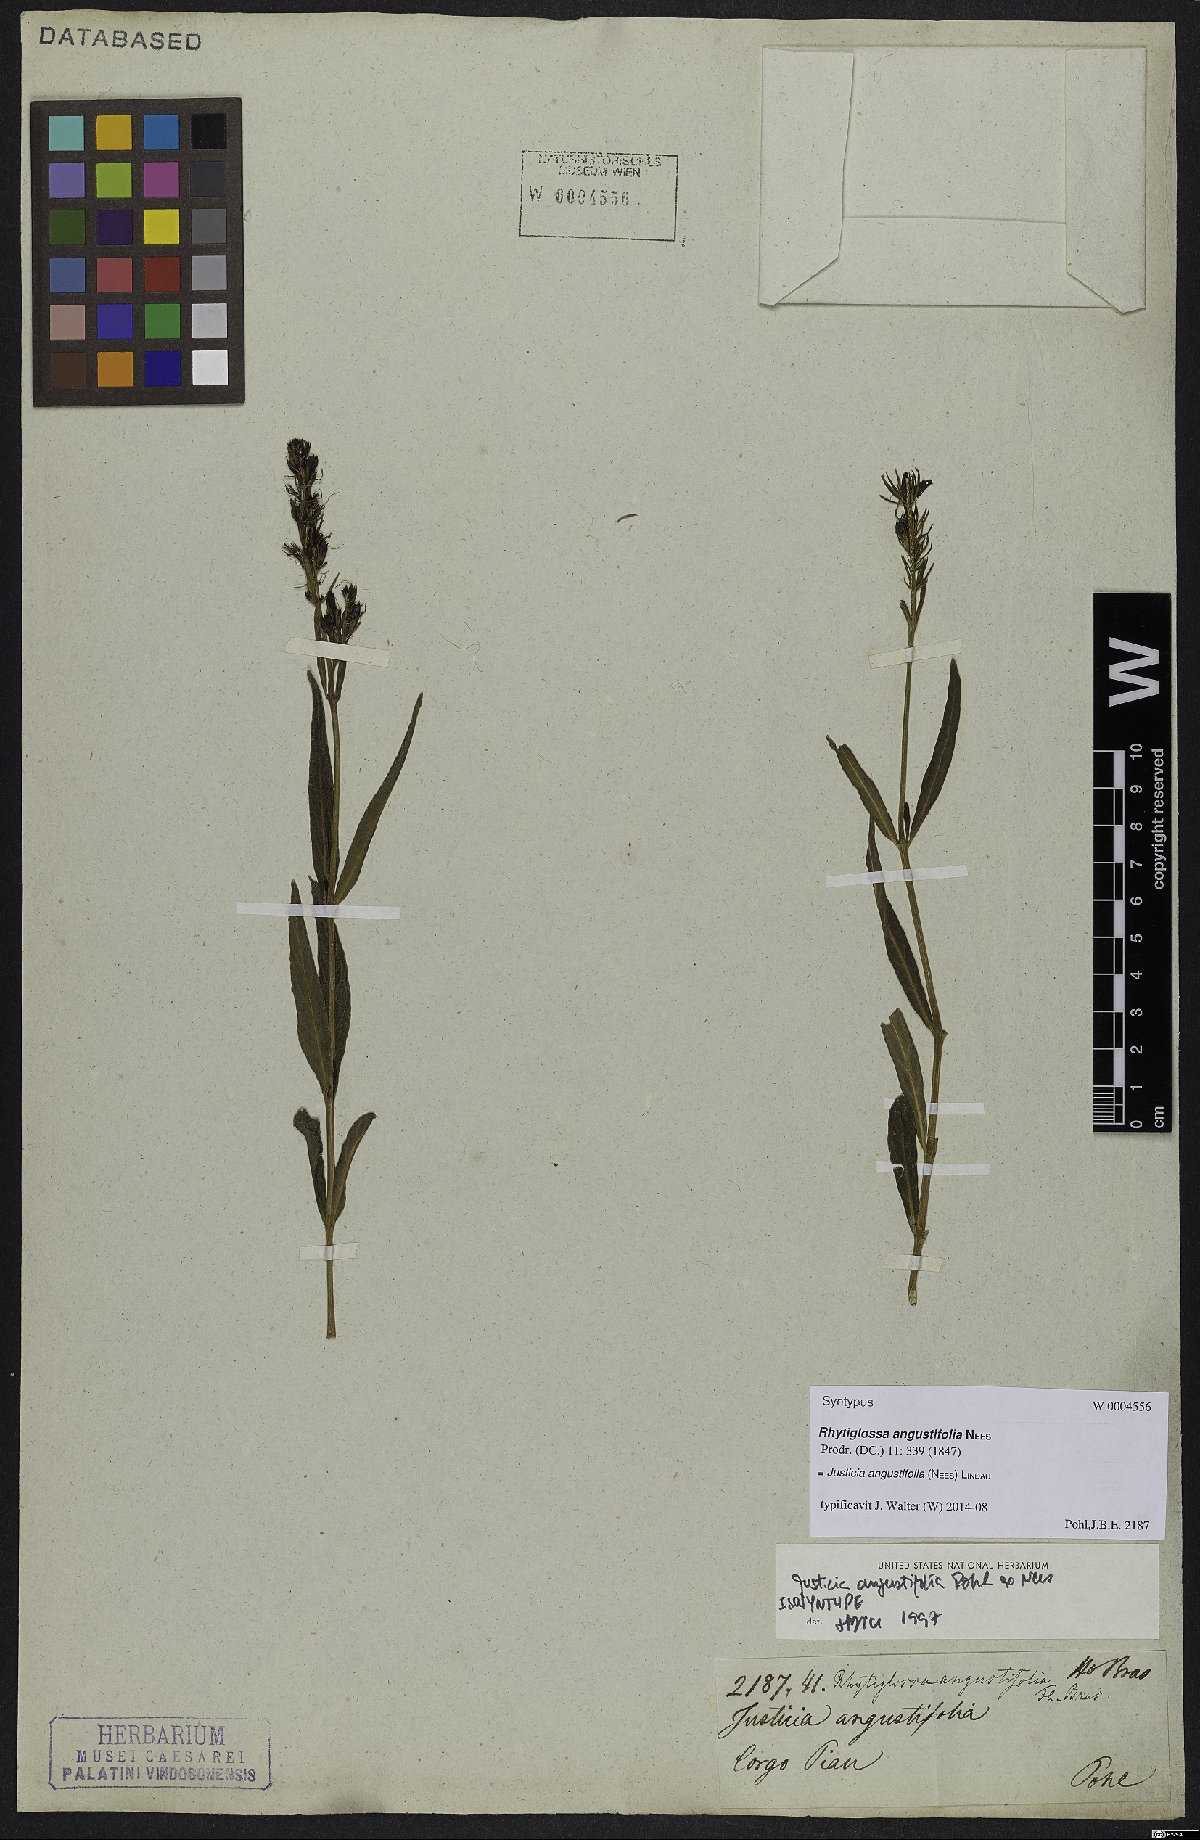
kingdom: Plantae
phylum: Tracheophyta
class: Magnoliopsida
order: Lamiales
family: Acanthaceae
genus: Dianthera
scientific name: Dianthera angustifolia
